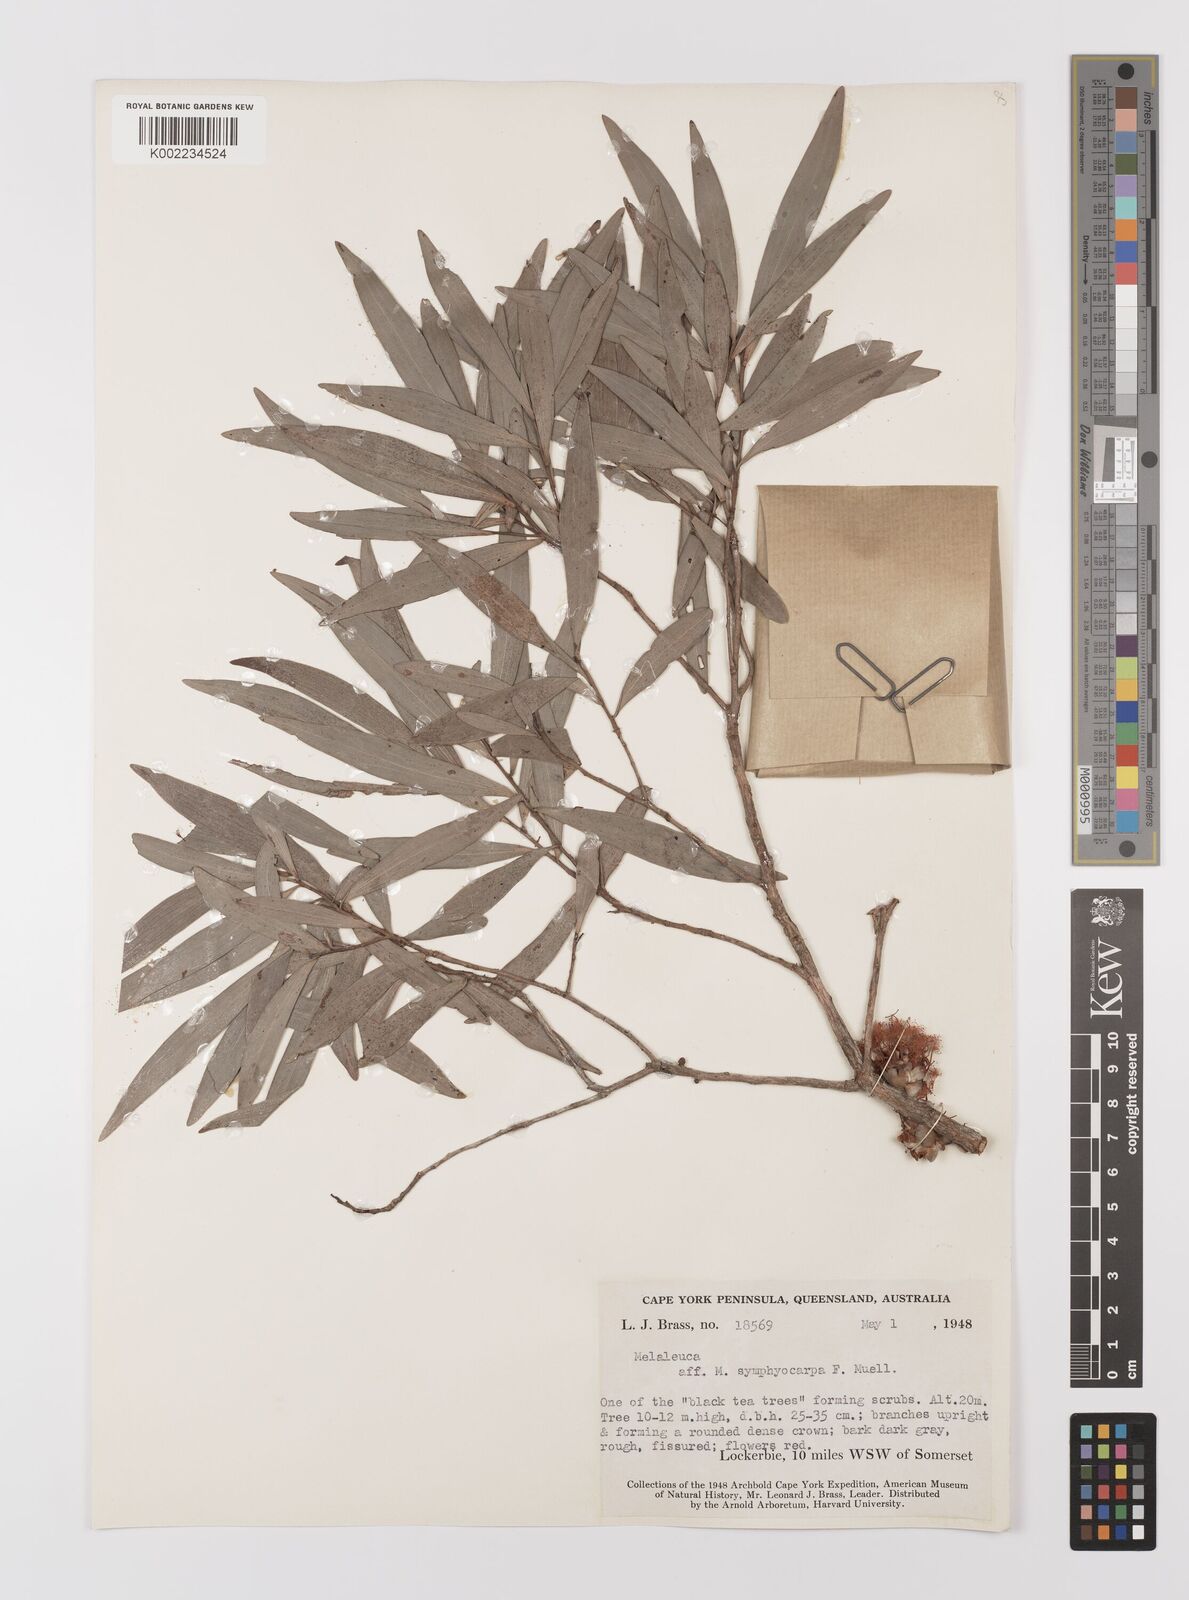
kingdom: Plantae
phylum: Tracheophyta
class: Magnoliopsida
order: Myrtales
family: Myrtaceae
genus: Asteromyrtus
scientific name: Asteromyrtus symphyocarpa
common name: Liniment-tree
